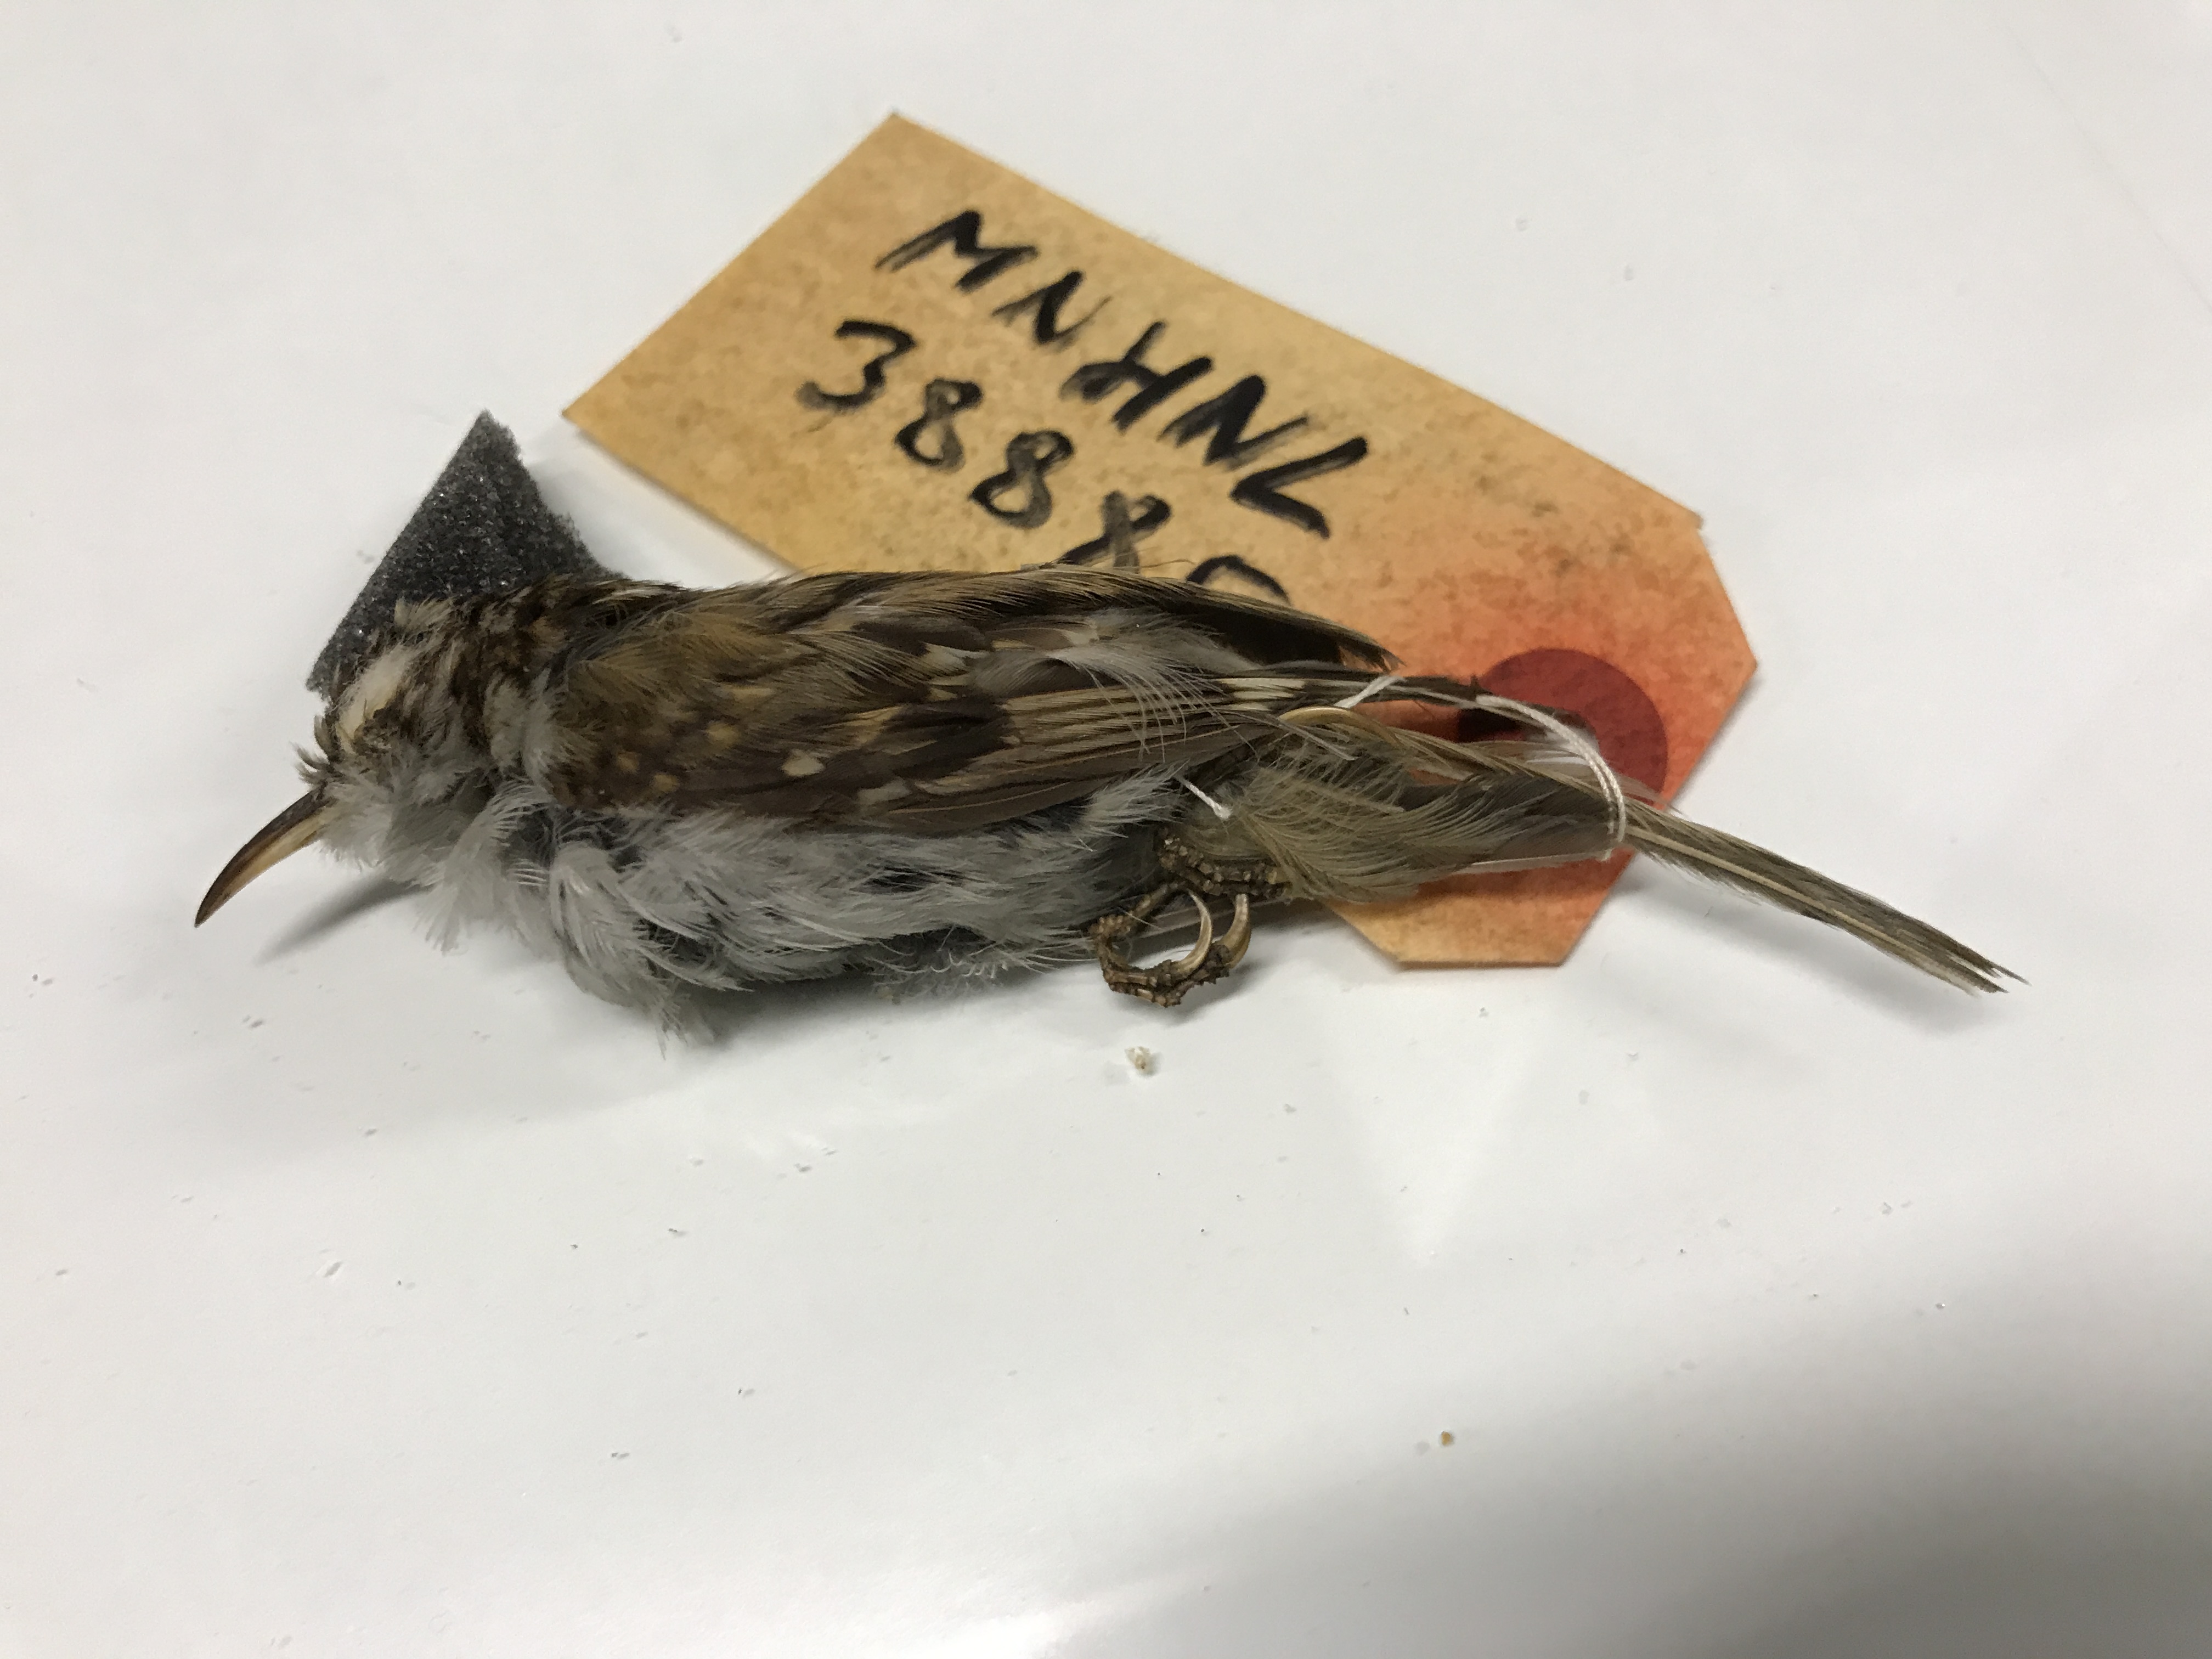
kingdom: Animalia
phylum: Chordata
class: Aves
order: Passeriformes
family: Certhiidae
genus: Certhia
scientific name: Certhia brachydactyla
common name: Short-toed treecreeper
